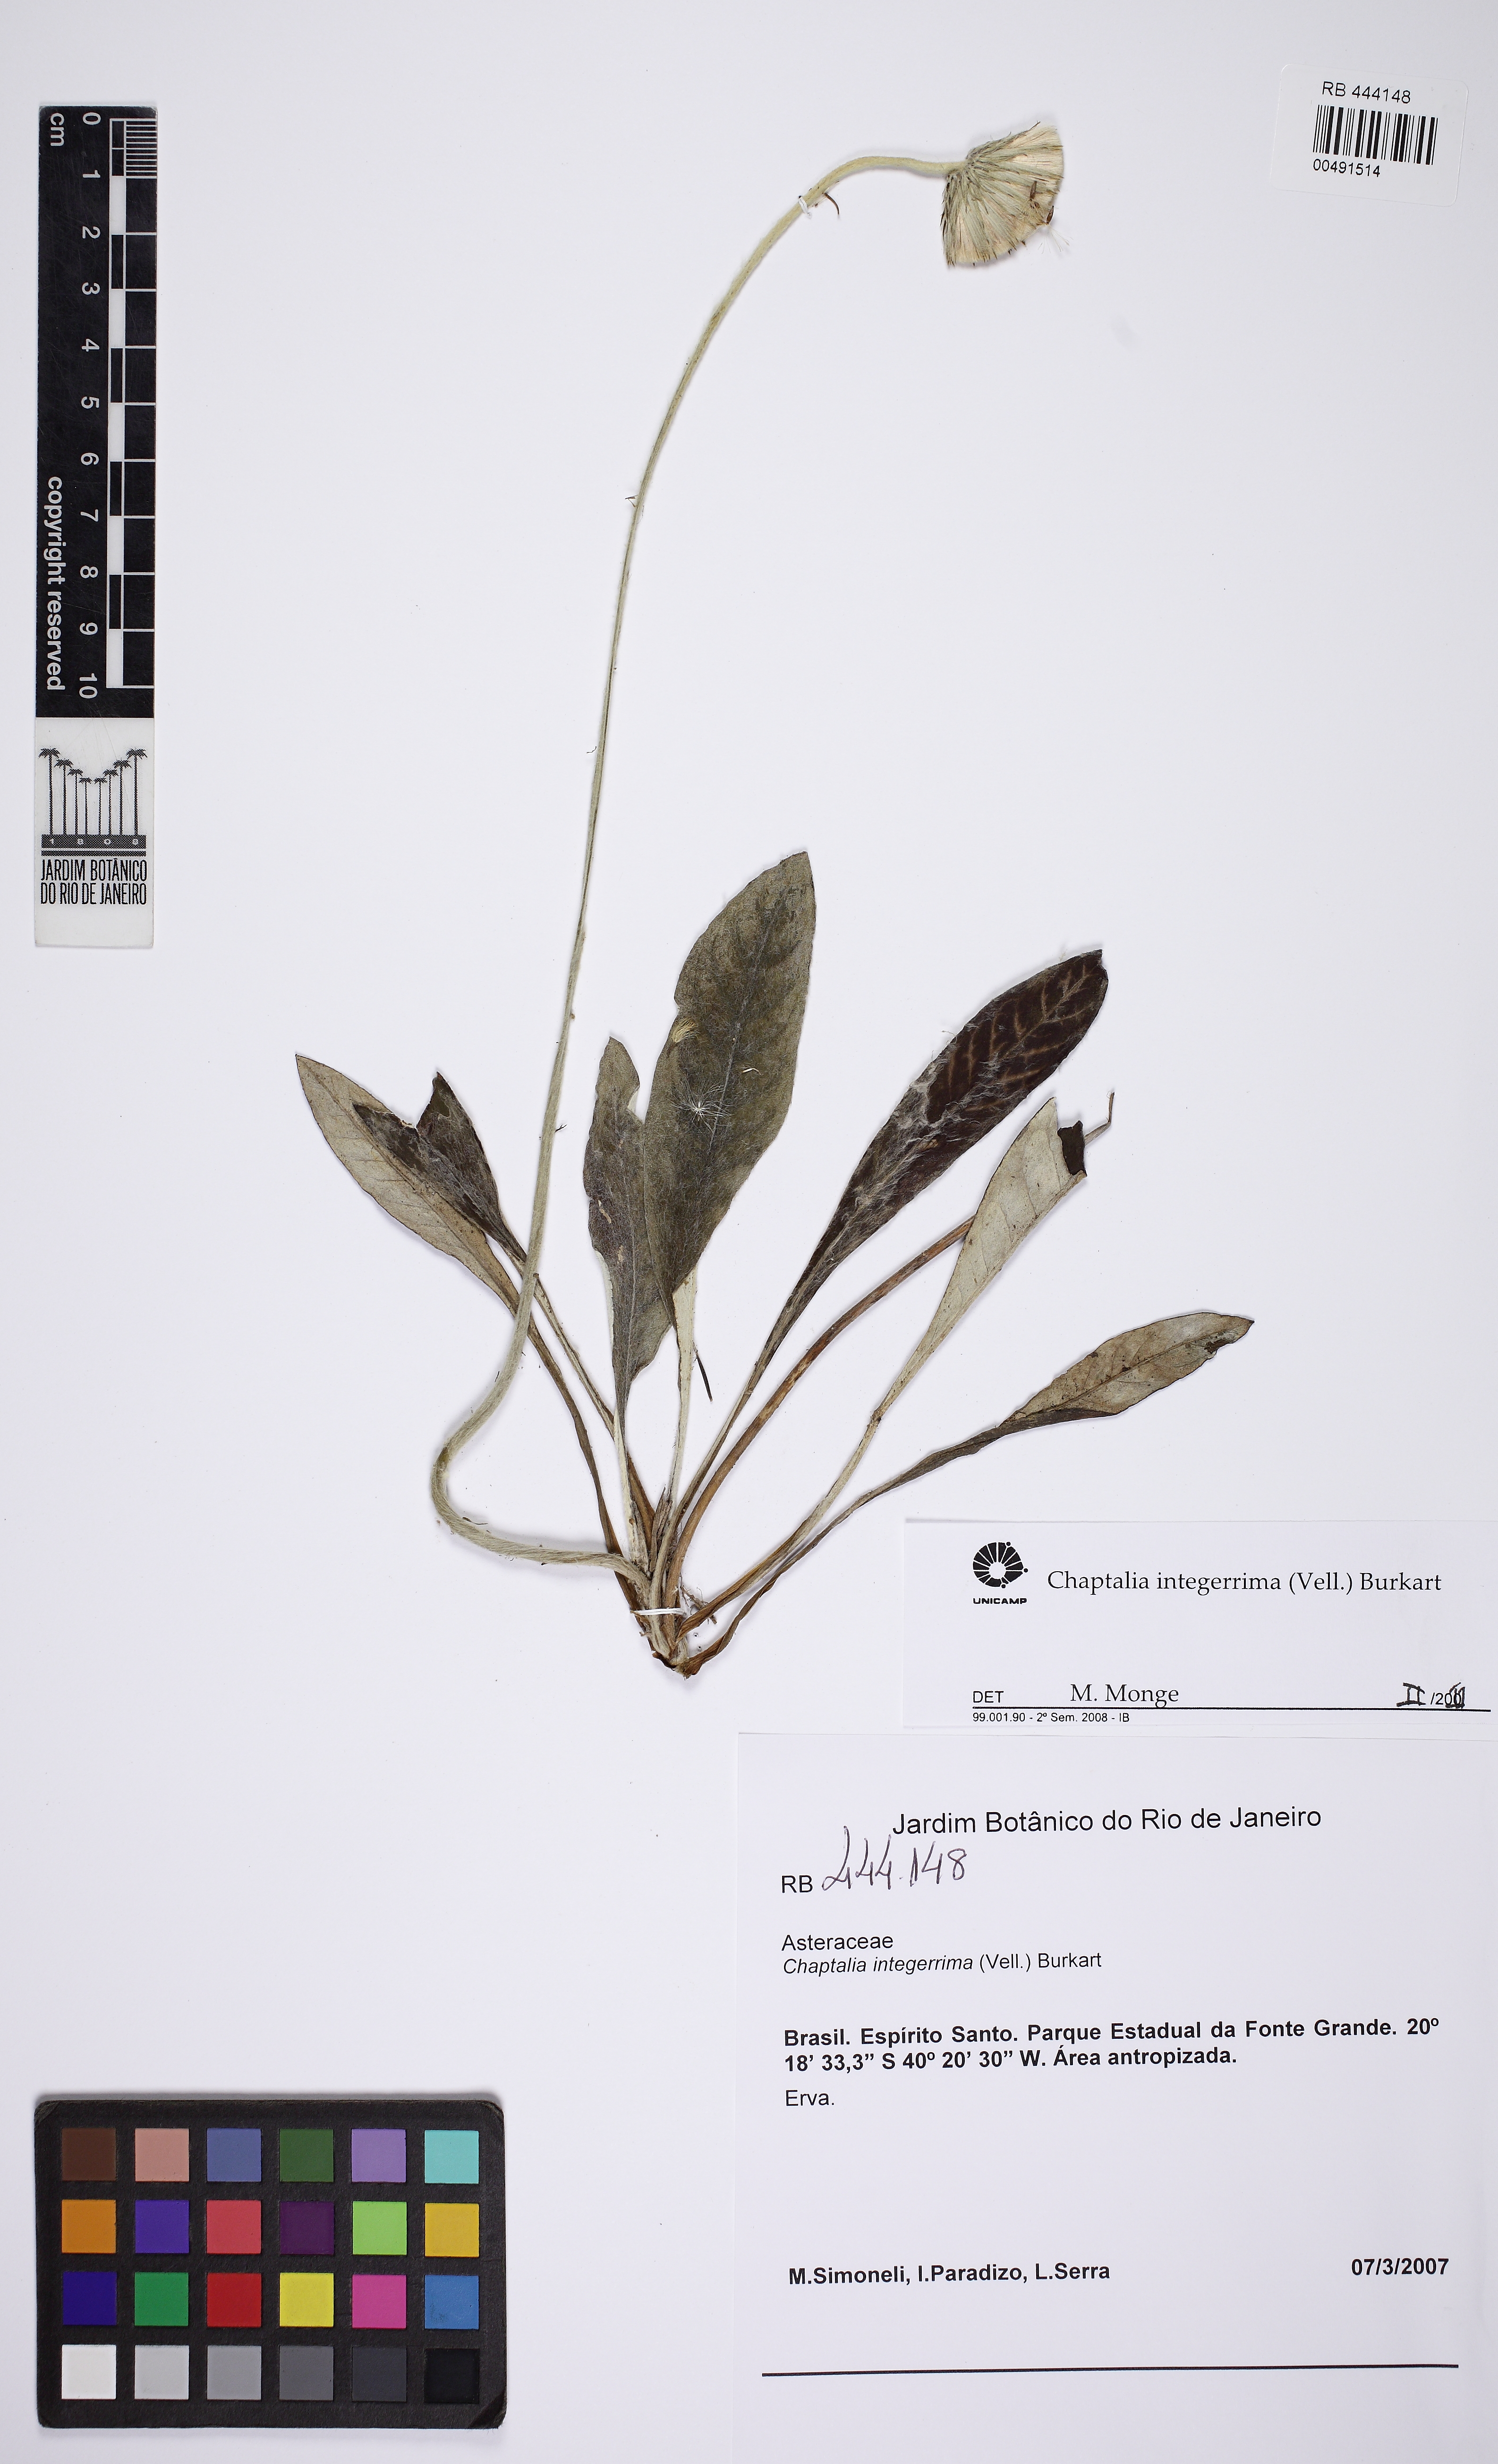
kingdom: Plantae
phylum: Tracheophyta
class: Magnoliopsida
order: Asterales
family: Asteraceae
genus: Chaptalia
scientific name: Chaptalia integerrima
